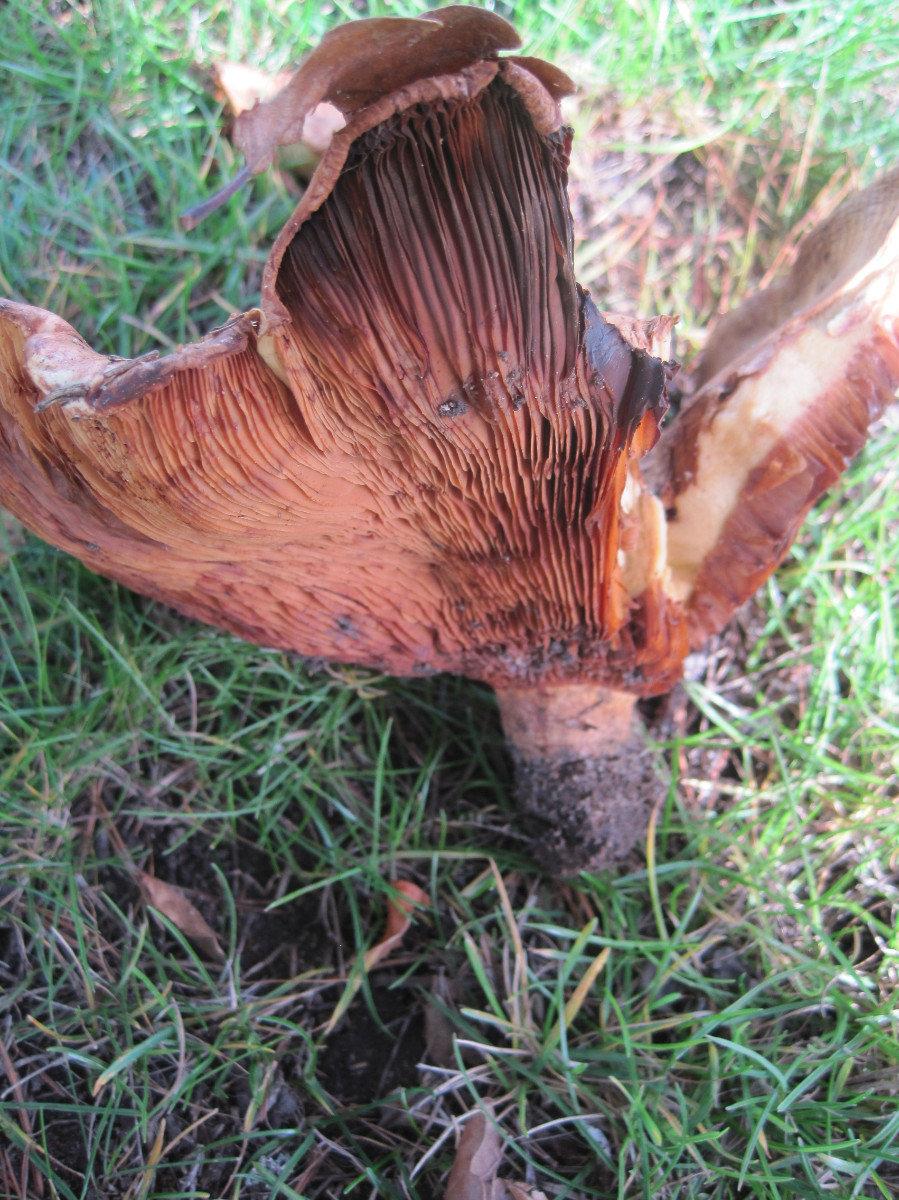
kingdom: Fungi
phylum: Basidiomycota
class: Agaricomycetes
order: Boletales
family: Paxillaceae
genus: Paxillus
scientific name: Paxillus obscurisporus
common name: mahognisporet netbladhat
